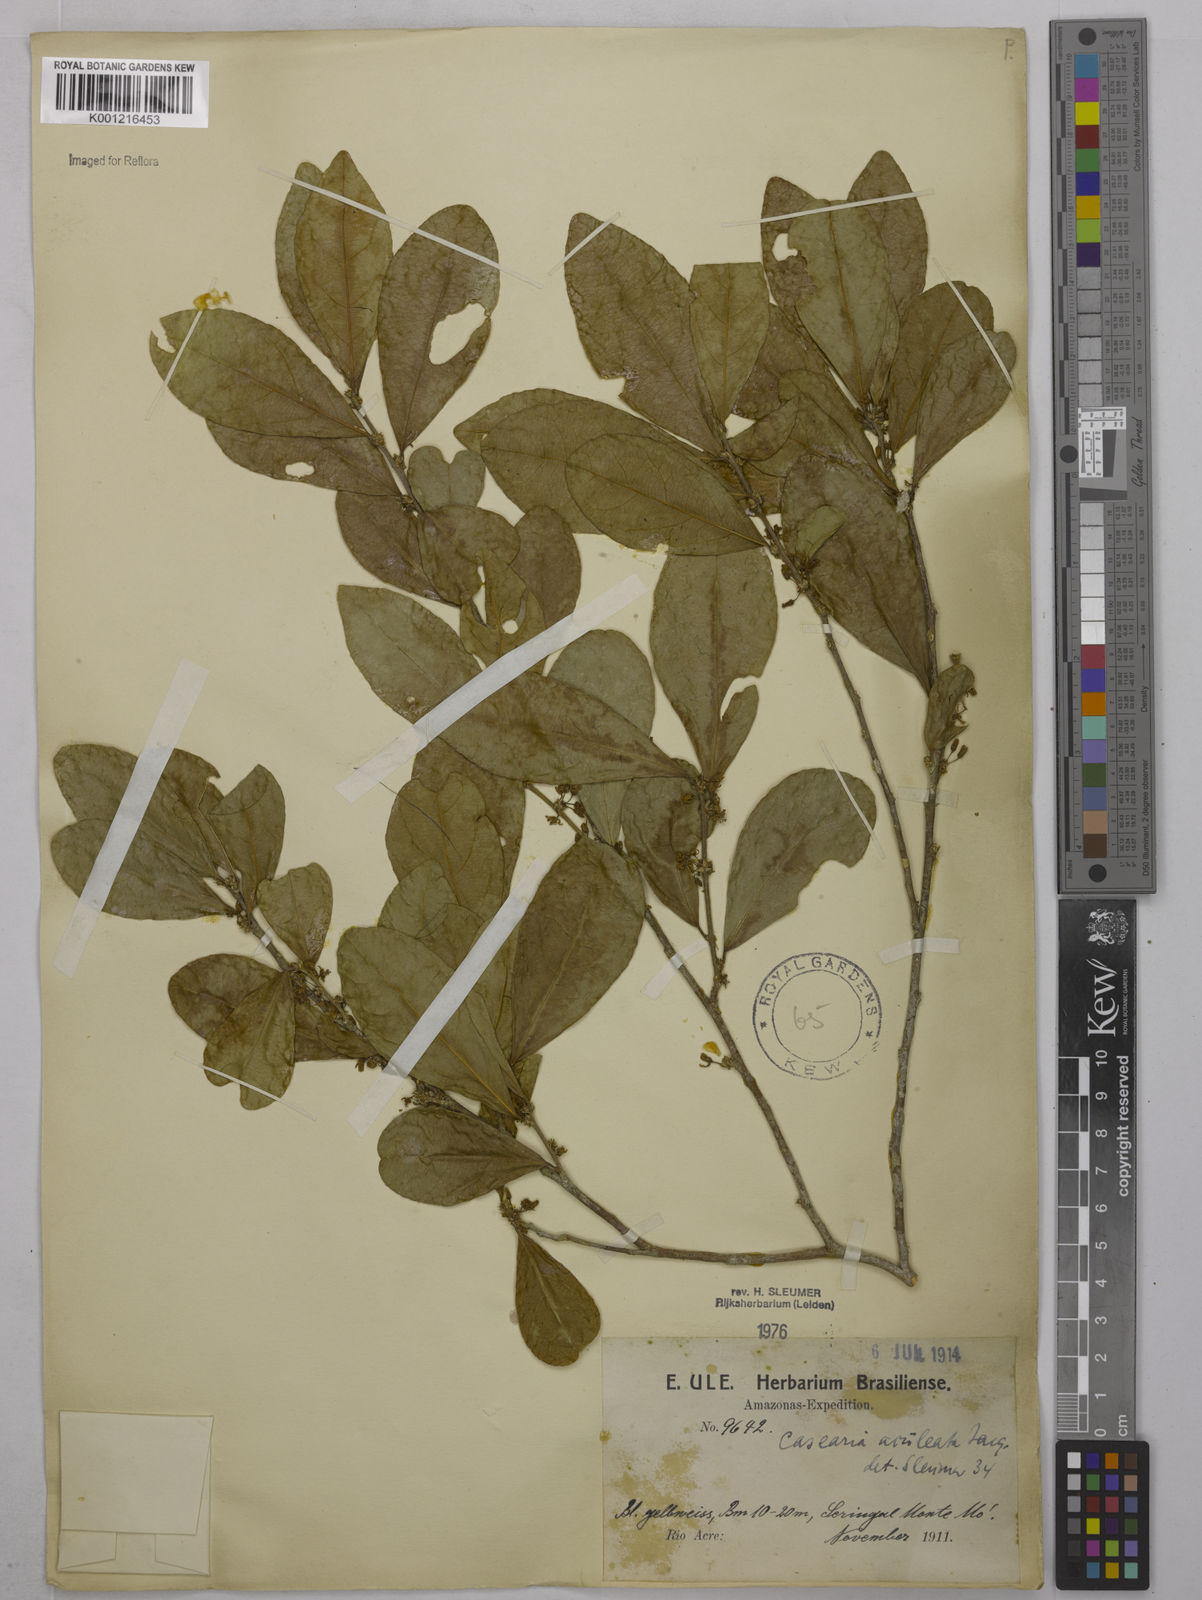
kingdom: Plantae
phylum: Tracheophyta
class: Magnoliopsida
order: Malpighiales
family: Salicaceae
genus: Casearia
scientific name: Casearia aculeata
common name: Cockspur
